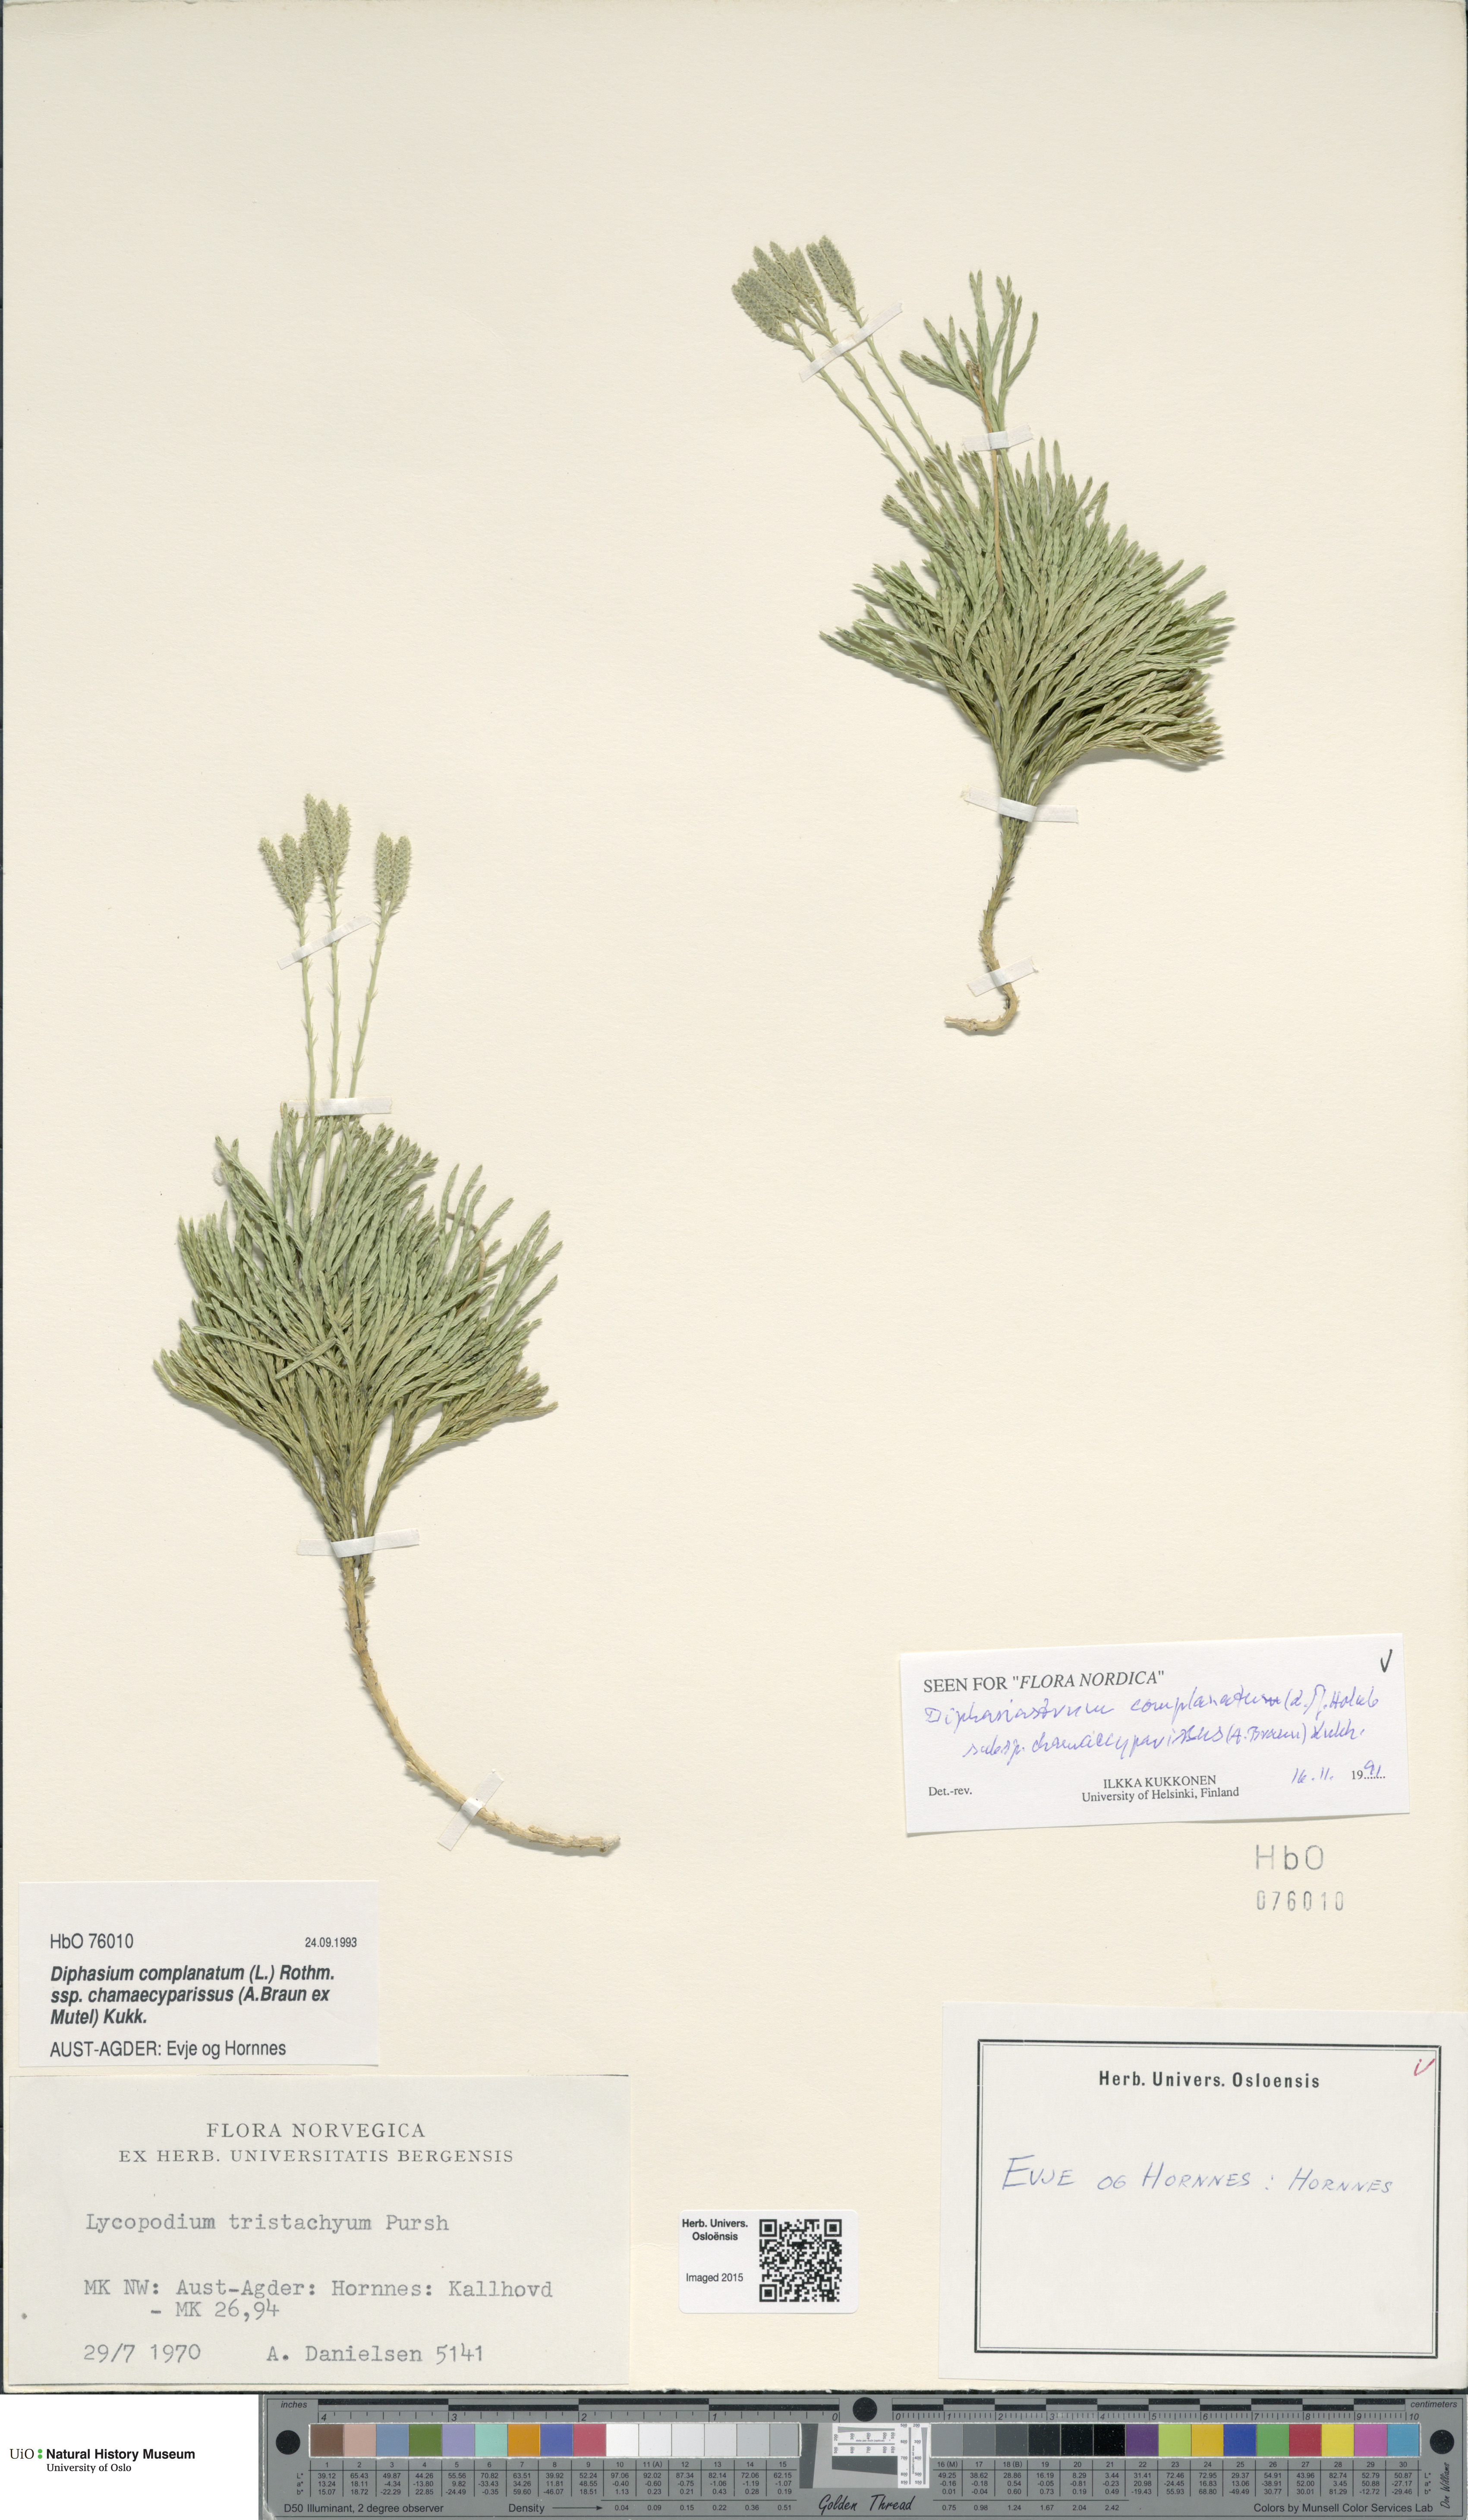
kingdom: Plantae
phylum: Tracheophyta
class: Lycopodiopsida
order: Lycopodiales
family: Lycopodiaceae
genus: Diphasiastrum
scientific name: Diphasiastrum tristachyum
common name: Blue ground-cedar
